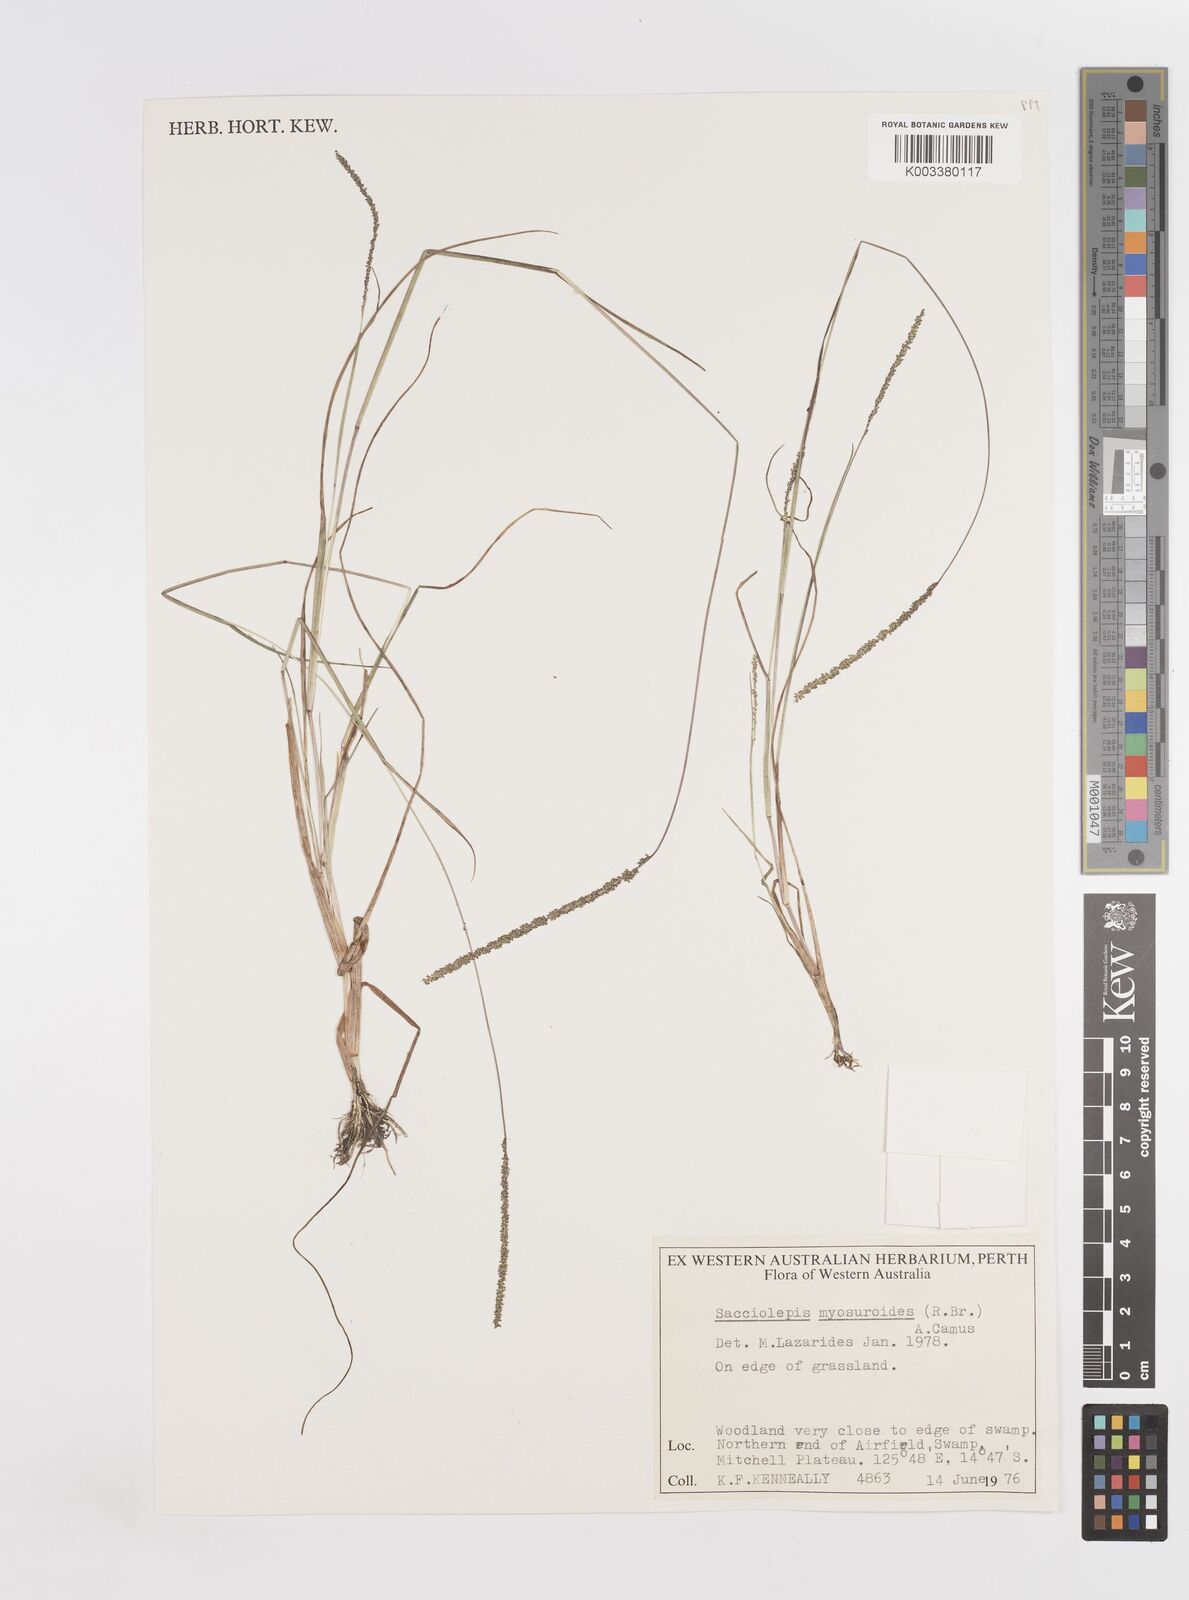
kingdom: Plantae
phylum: Tracheophyta
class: Liliopsida
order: Poales
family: Poaceae
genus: Sacciolepis
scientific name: Sacciolepis myosuroides
